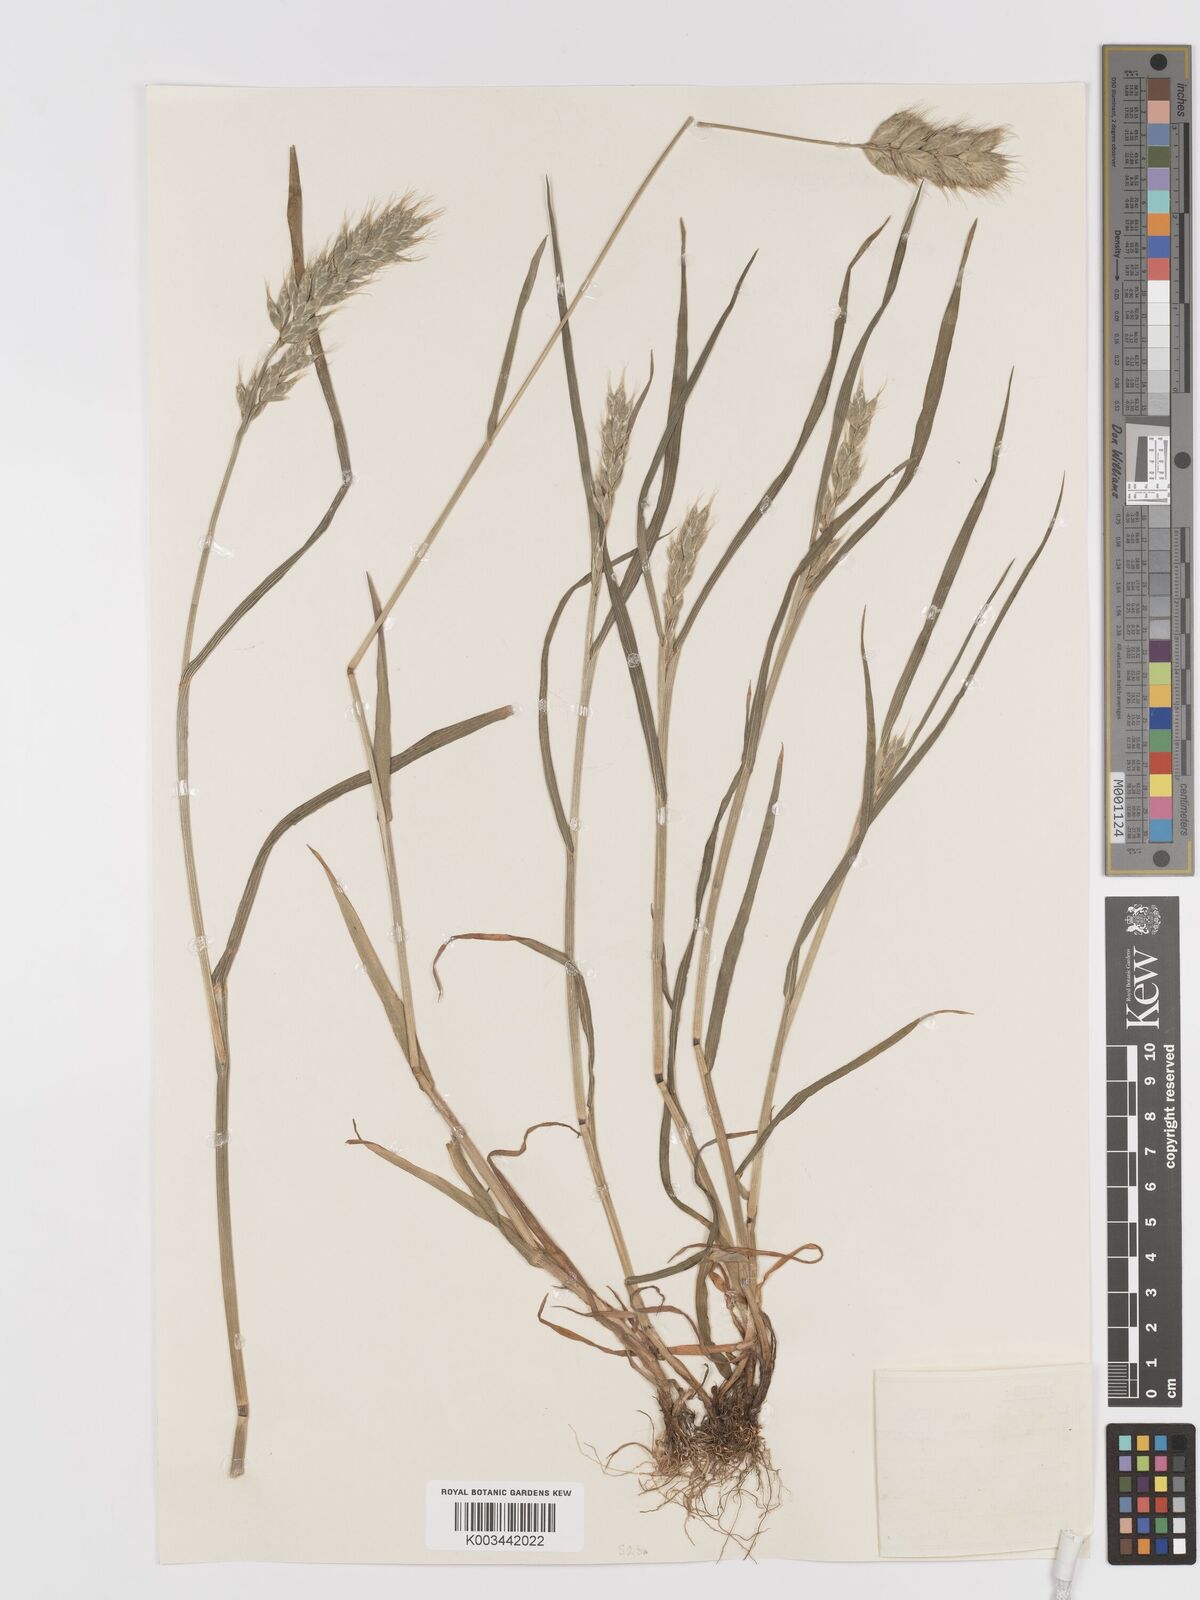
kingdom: Plantae
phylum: Tracheophyta
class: Liliopsida
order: Poales
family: Poaceae
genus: Bromus
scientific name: Bromus interruptus
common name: Interrupted brome
